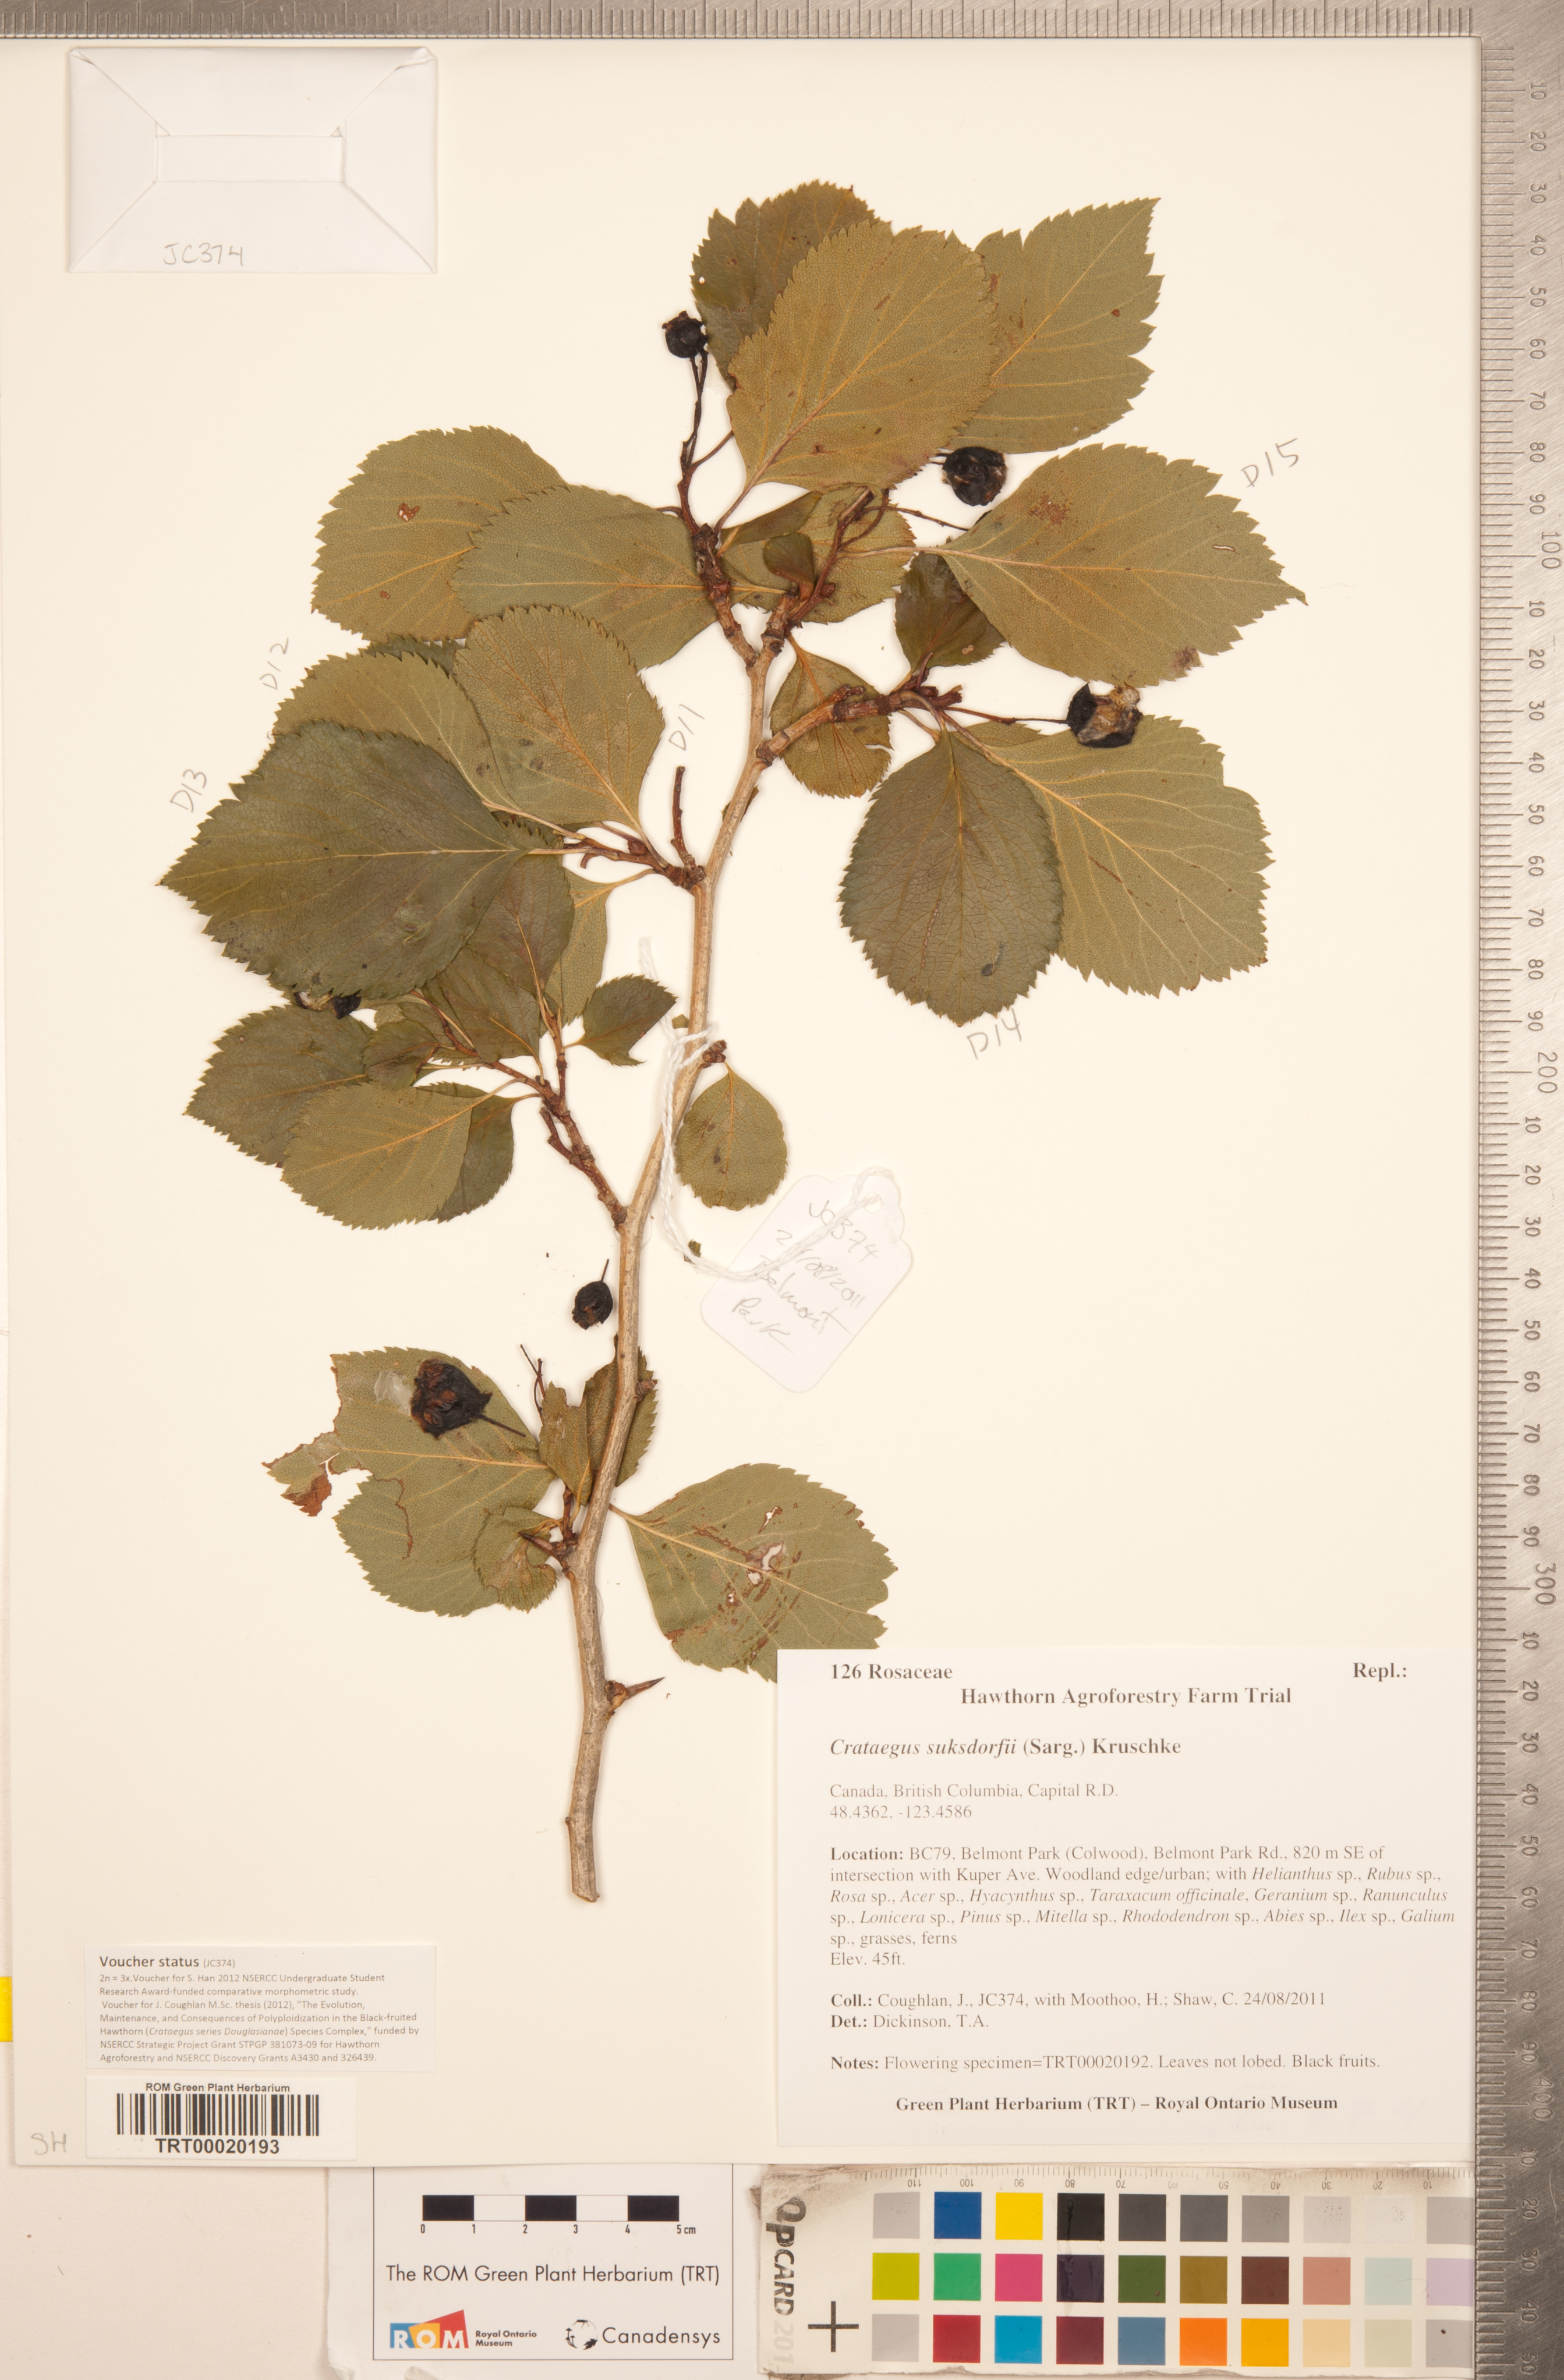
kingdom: Plantae
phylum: Tracheophyta
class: Magnoliopsida
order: Rosales
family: Rosaceae
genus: Crataegus
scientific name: Crataegus gaylussacia
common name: Huckleberry hawthorn
